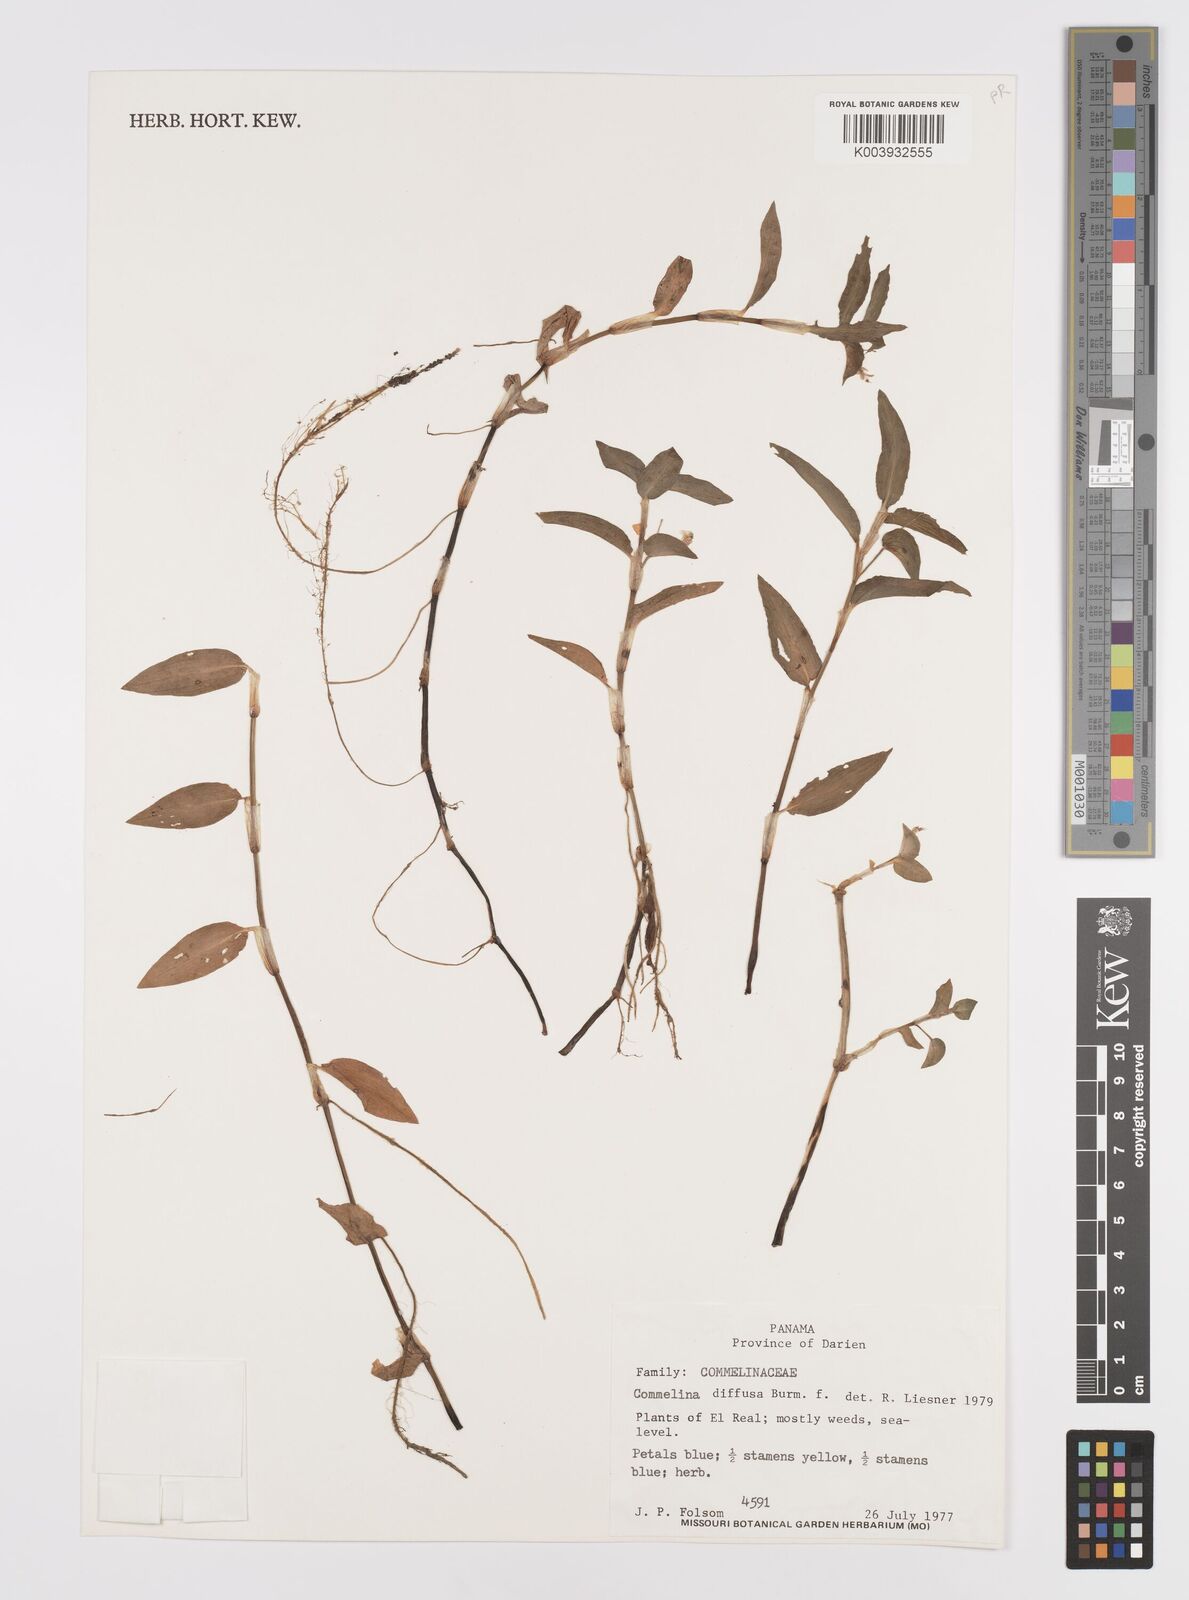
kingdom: Plantae
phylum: Tracheophyta
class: Liliopsida
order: Commelinales
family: Commelinaceae
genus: Commelina
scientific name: Commelina diffusa
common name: Climbing dayflower
